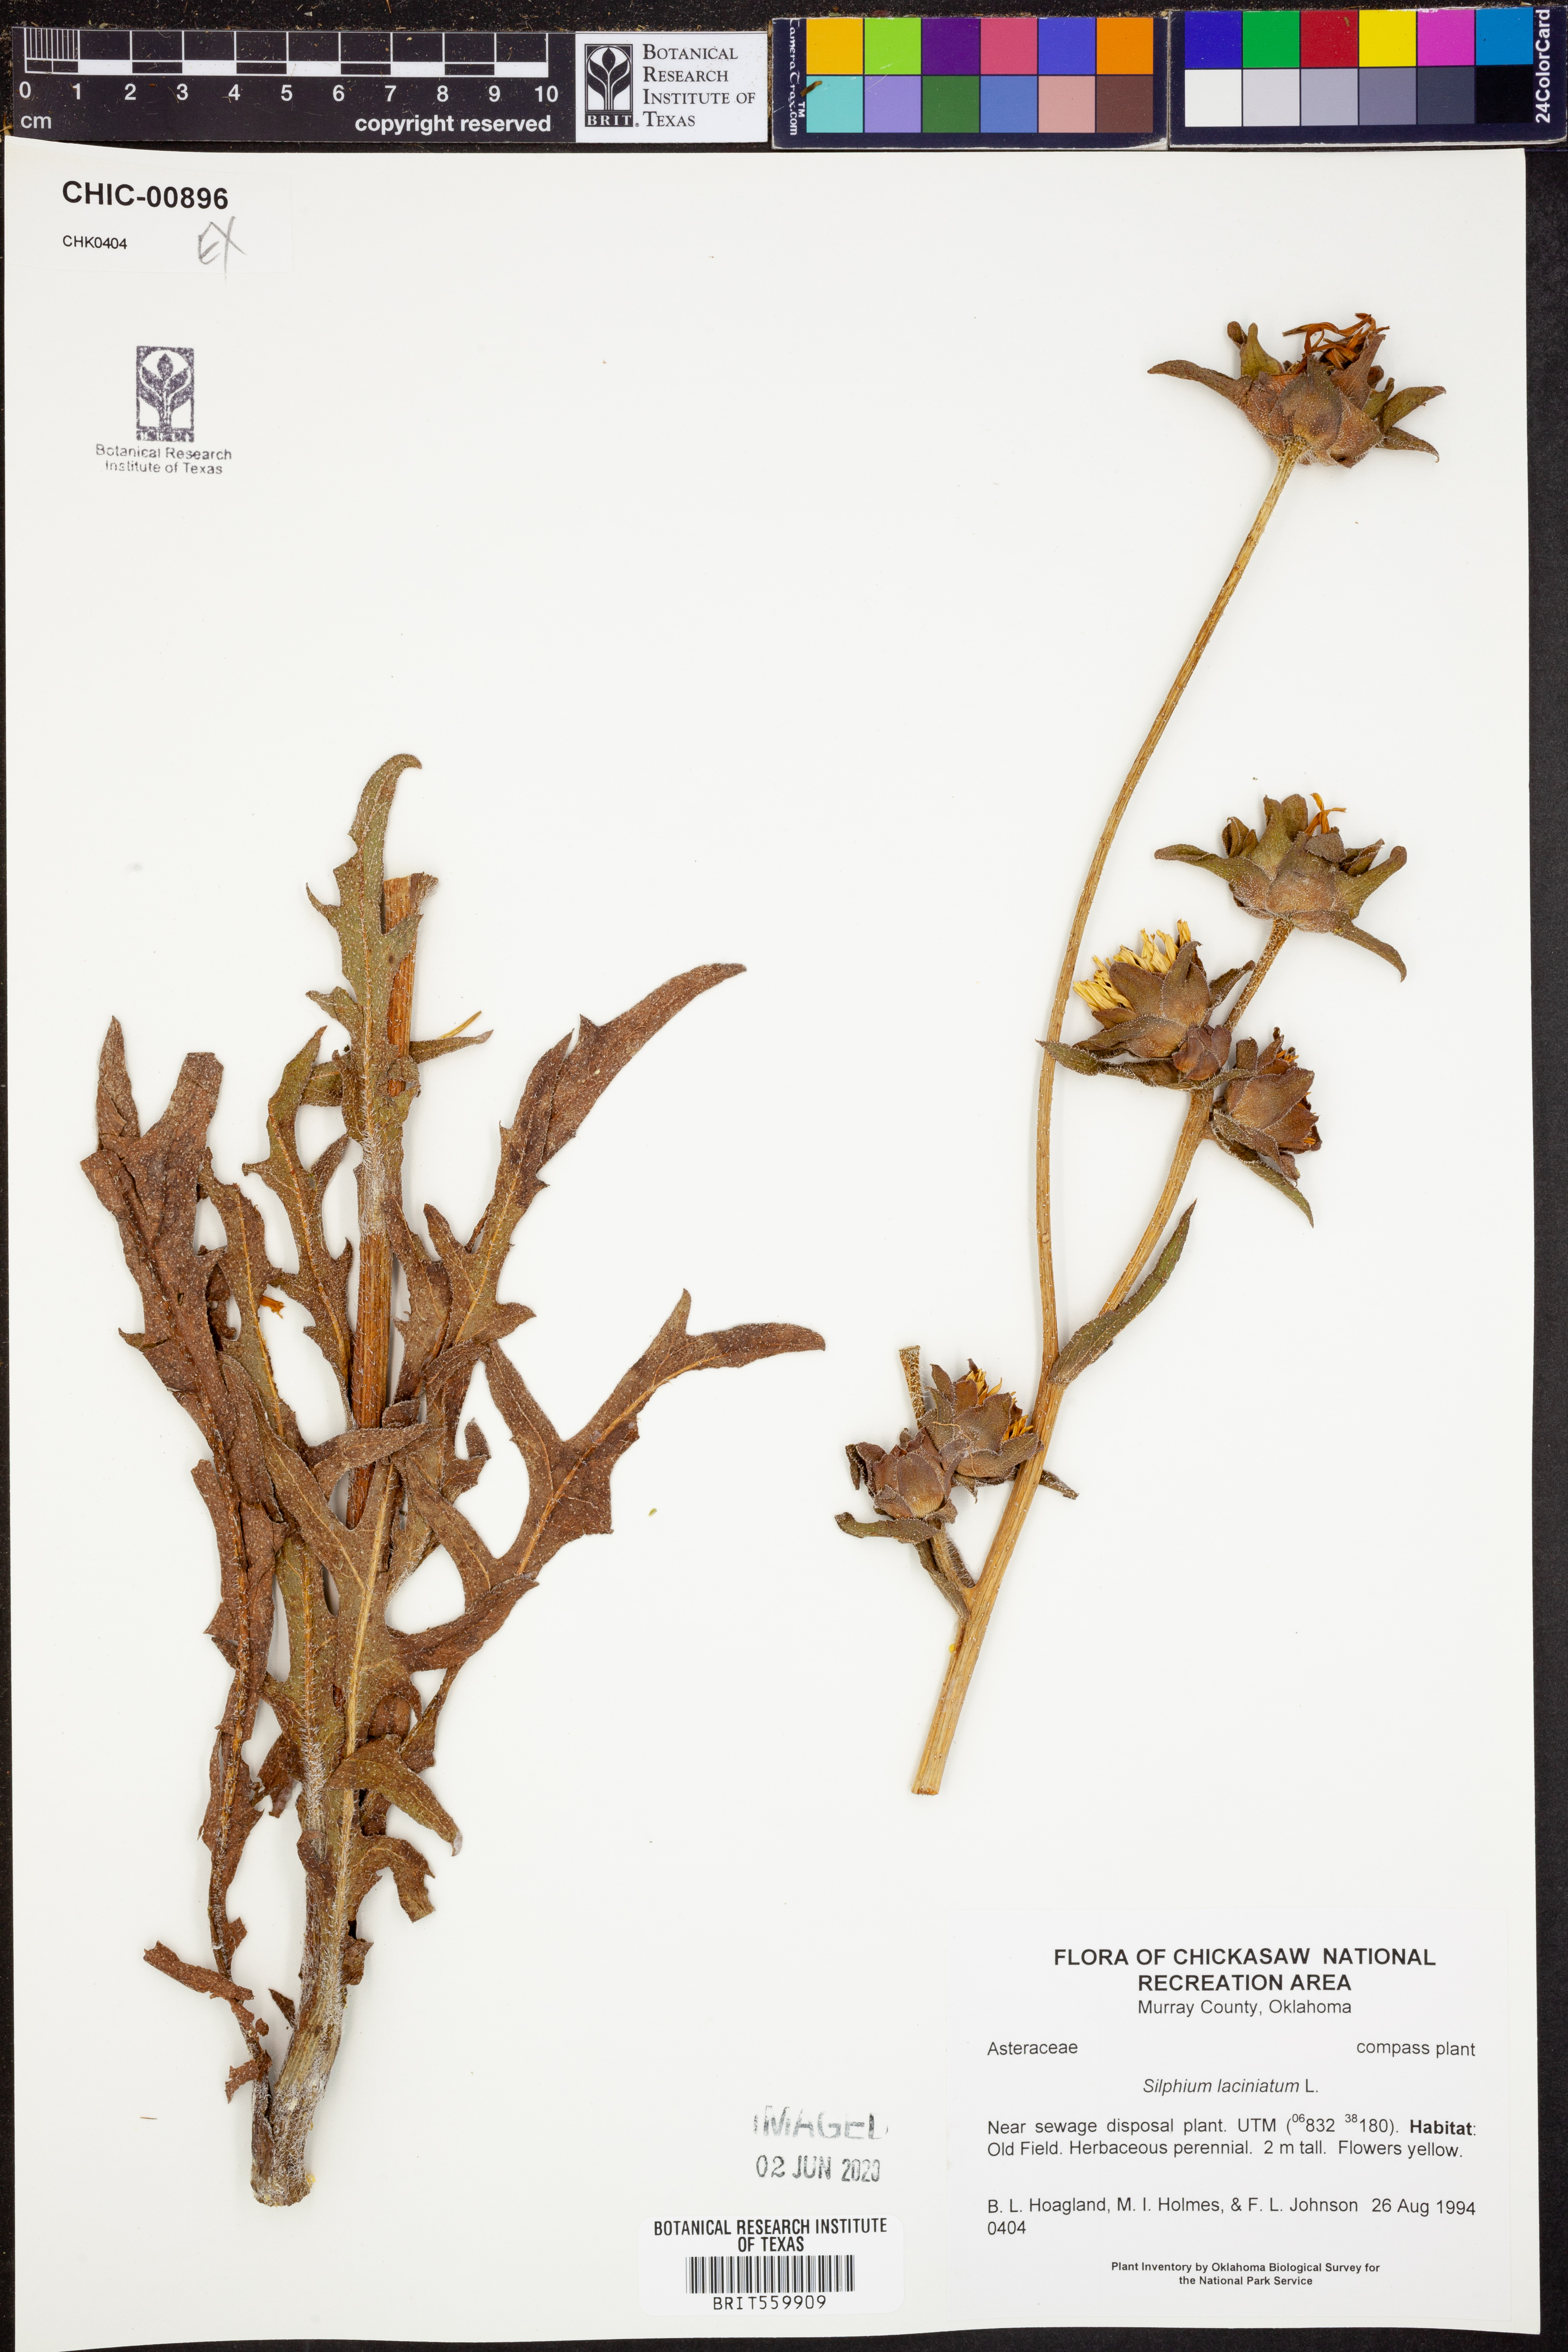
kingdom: Plantae
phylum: Tracheophyta
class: Magnoliopsida
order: Asterales
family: Asteraceae
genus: Silphium
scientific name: Silphium laciniatum
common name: Polarplant
